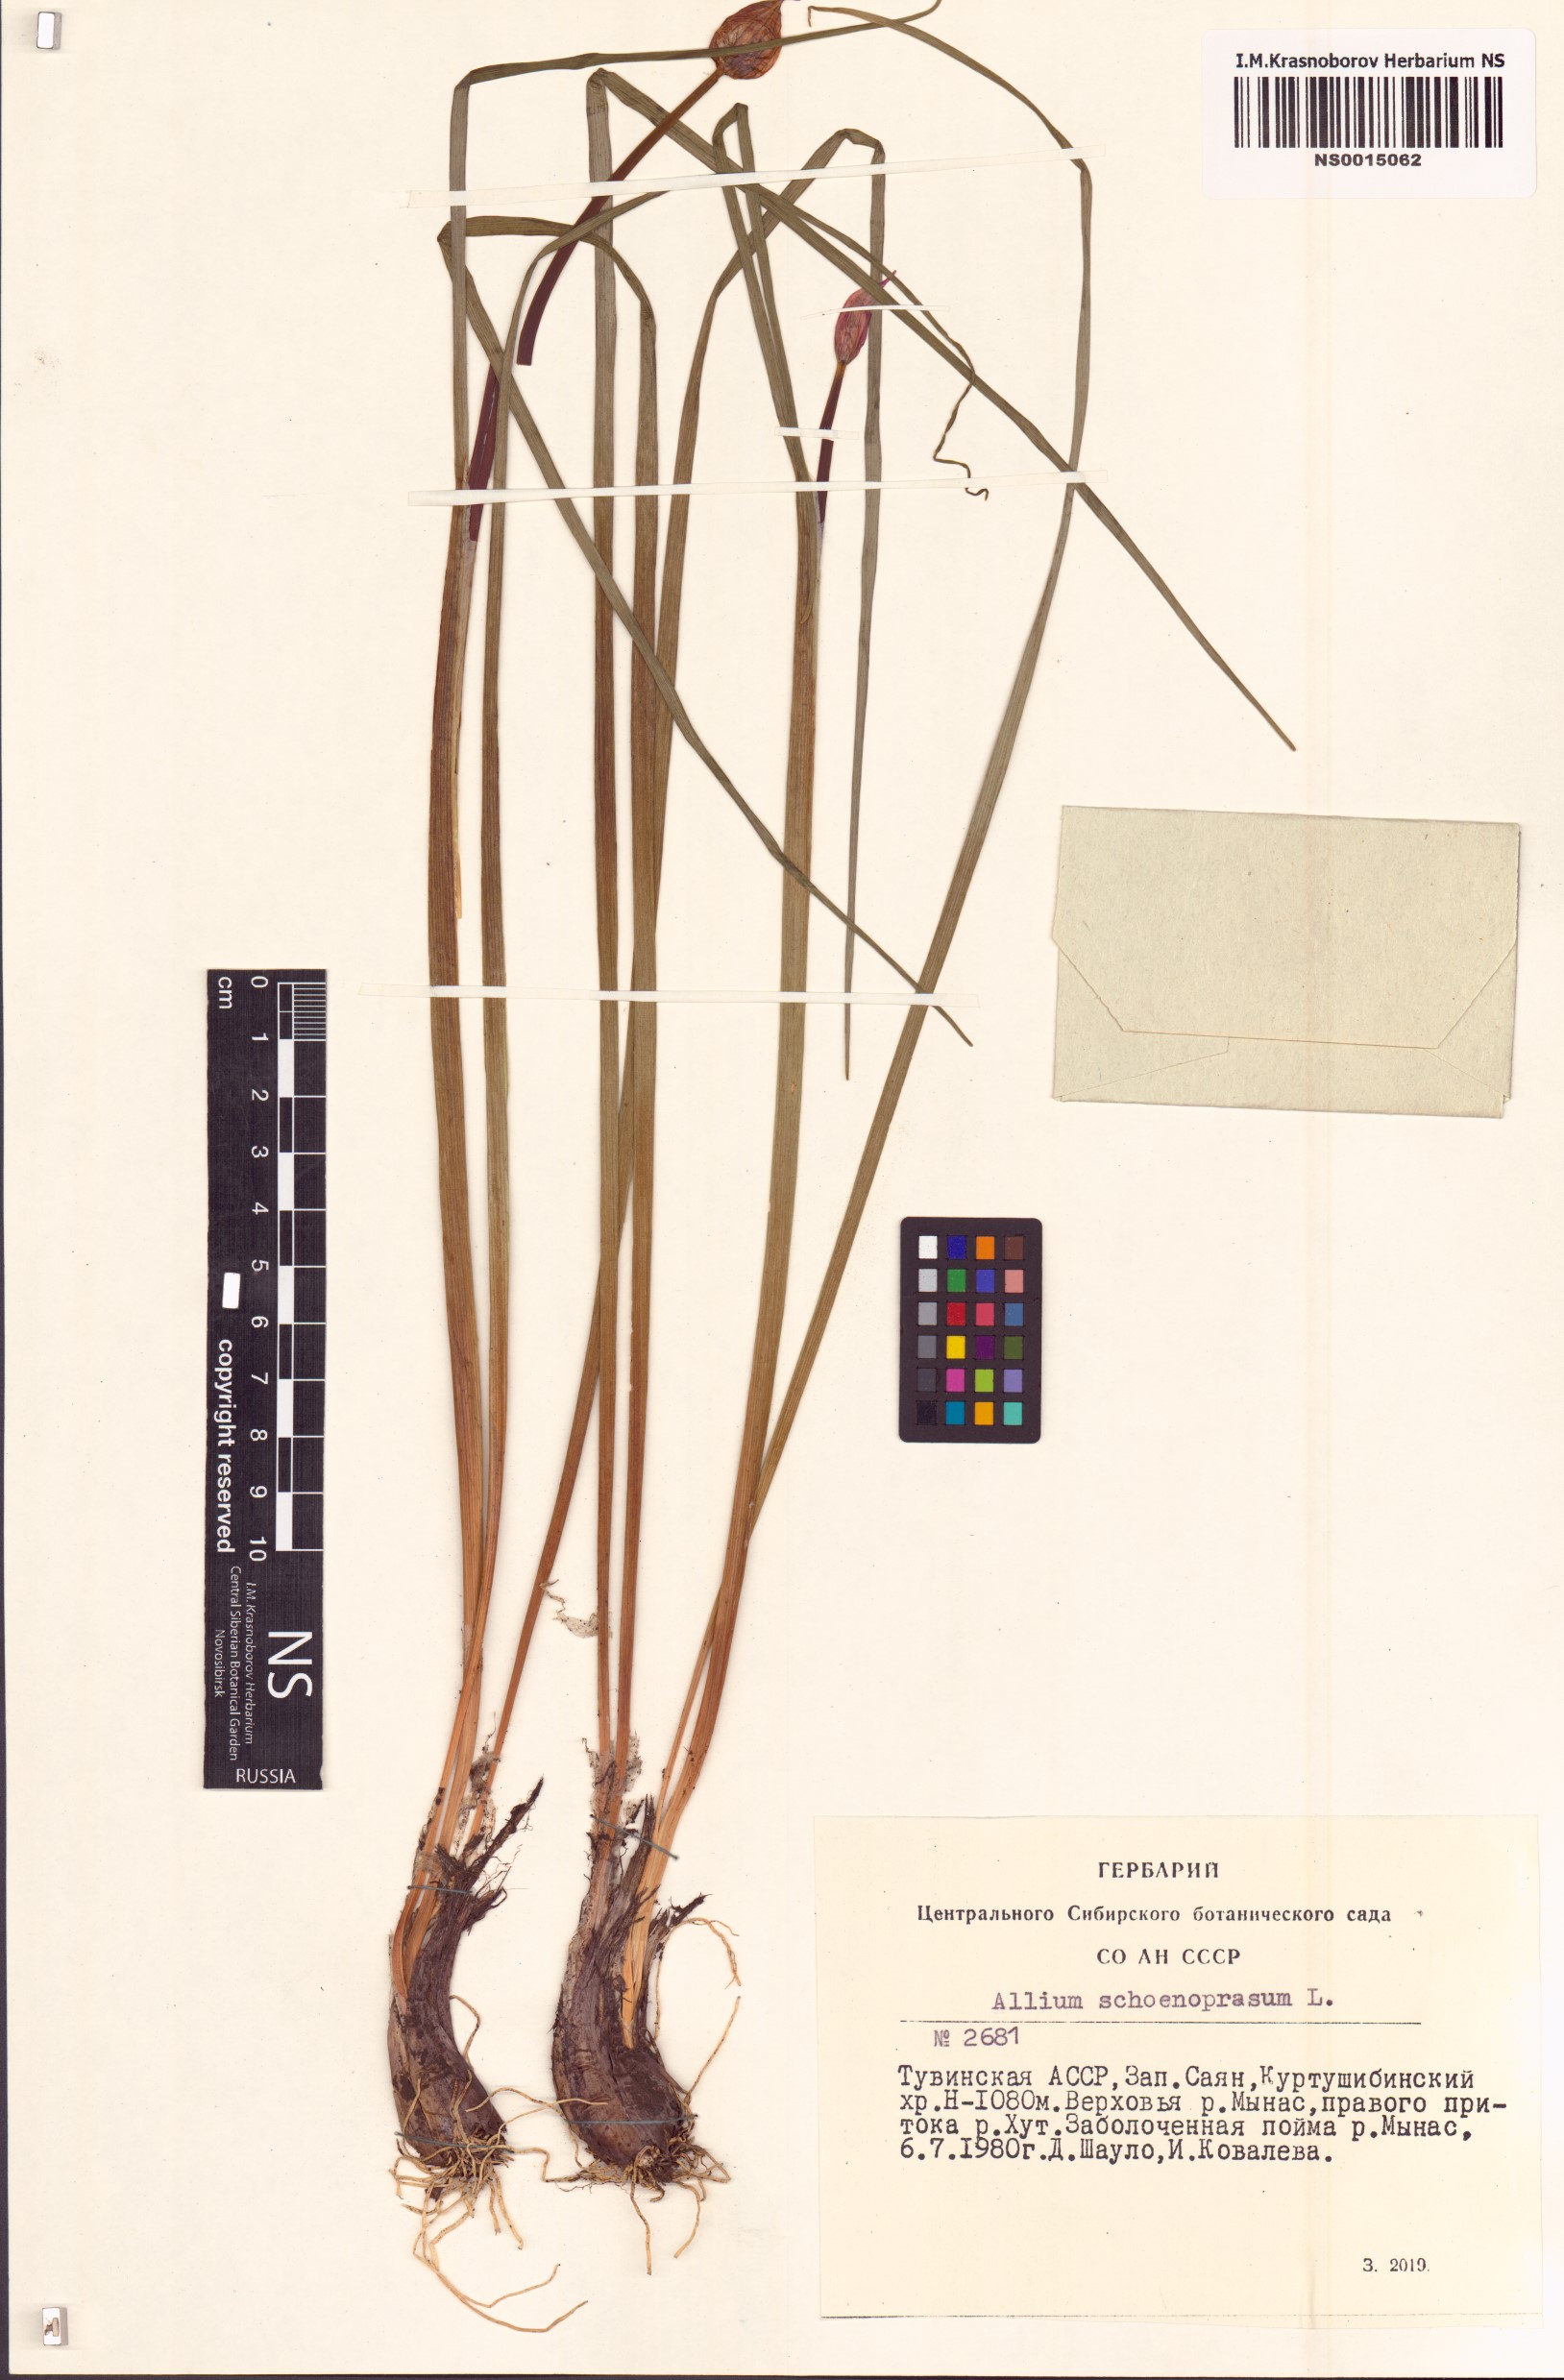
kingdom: Plantae
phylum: Tracheophyta
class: Liliopsida
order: Asparagales
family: Amaryllidaceae
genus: Allium
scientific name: Allium schoenoprasum
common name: Chives
